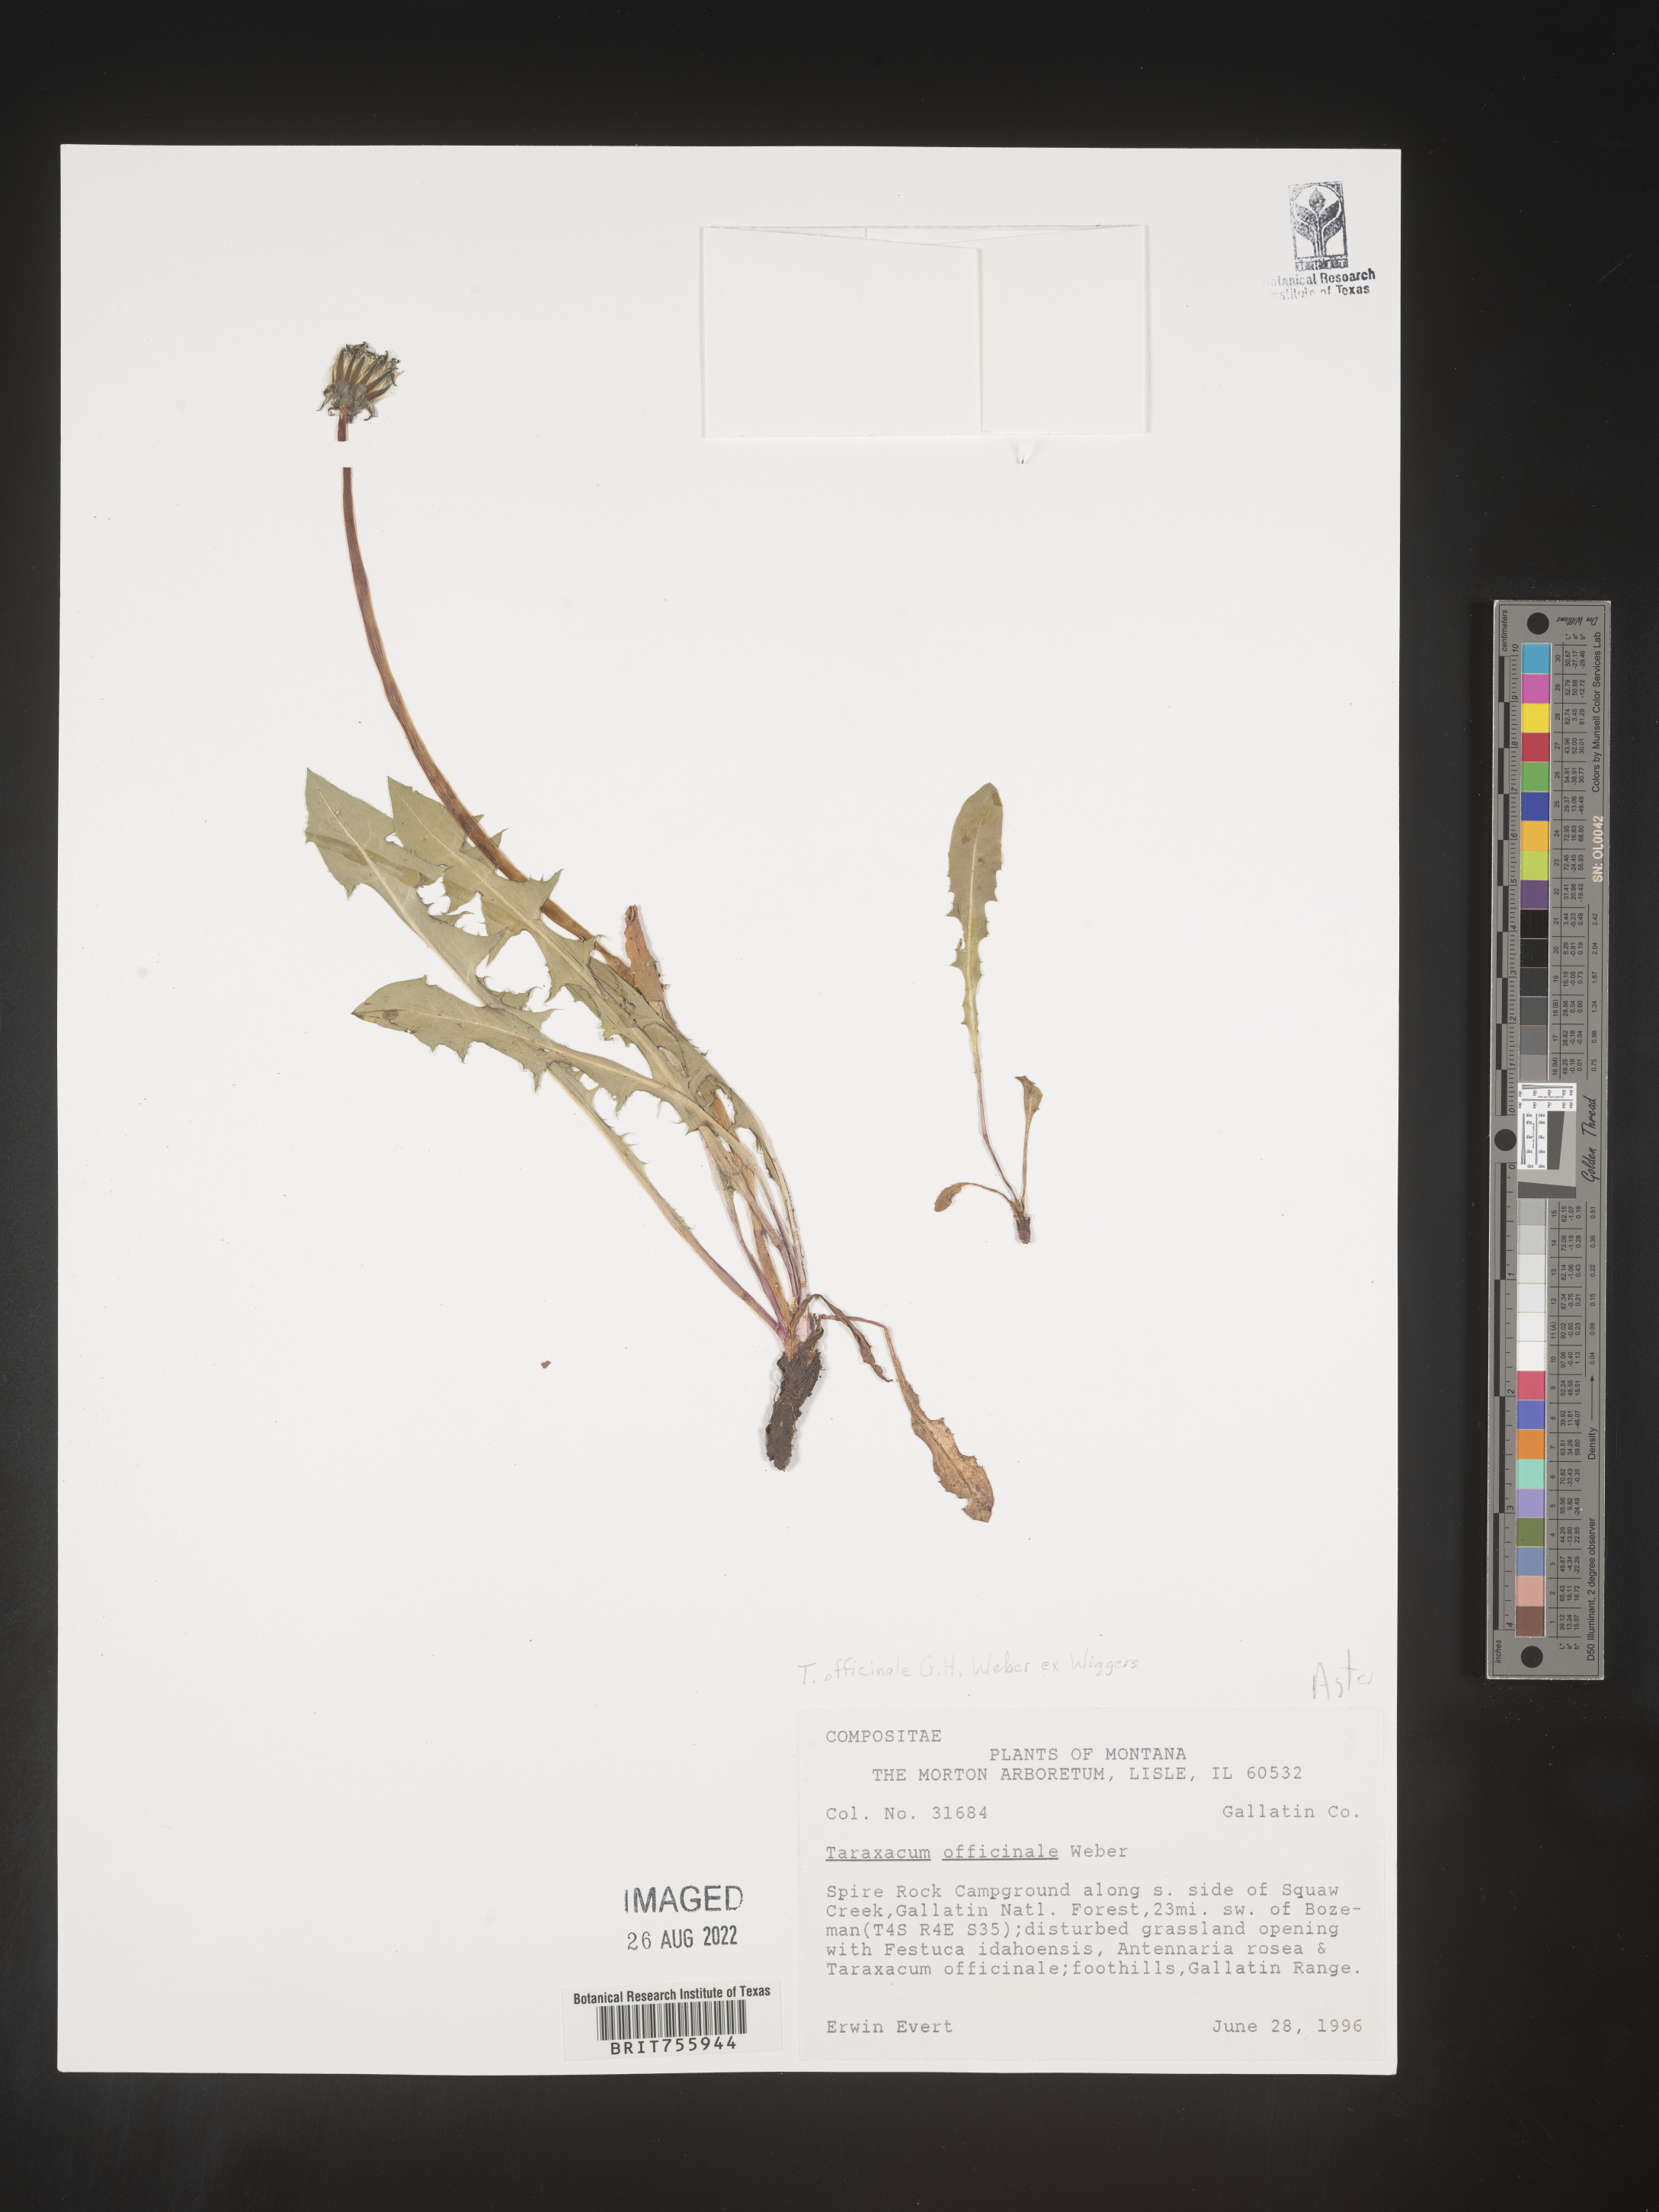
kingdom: Plantae
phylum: Tracheophyta
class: Magnoliopsida
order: Asterales
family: Asteraceae
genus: Taraxacum
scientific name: Taraxacum officinale
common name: Common dandelion
